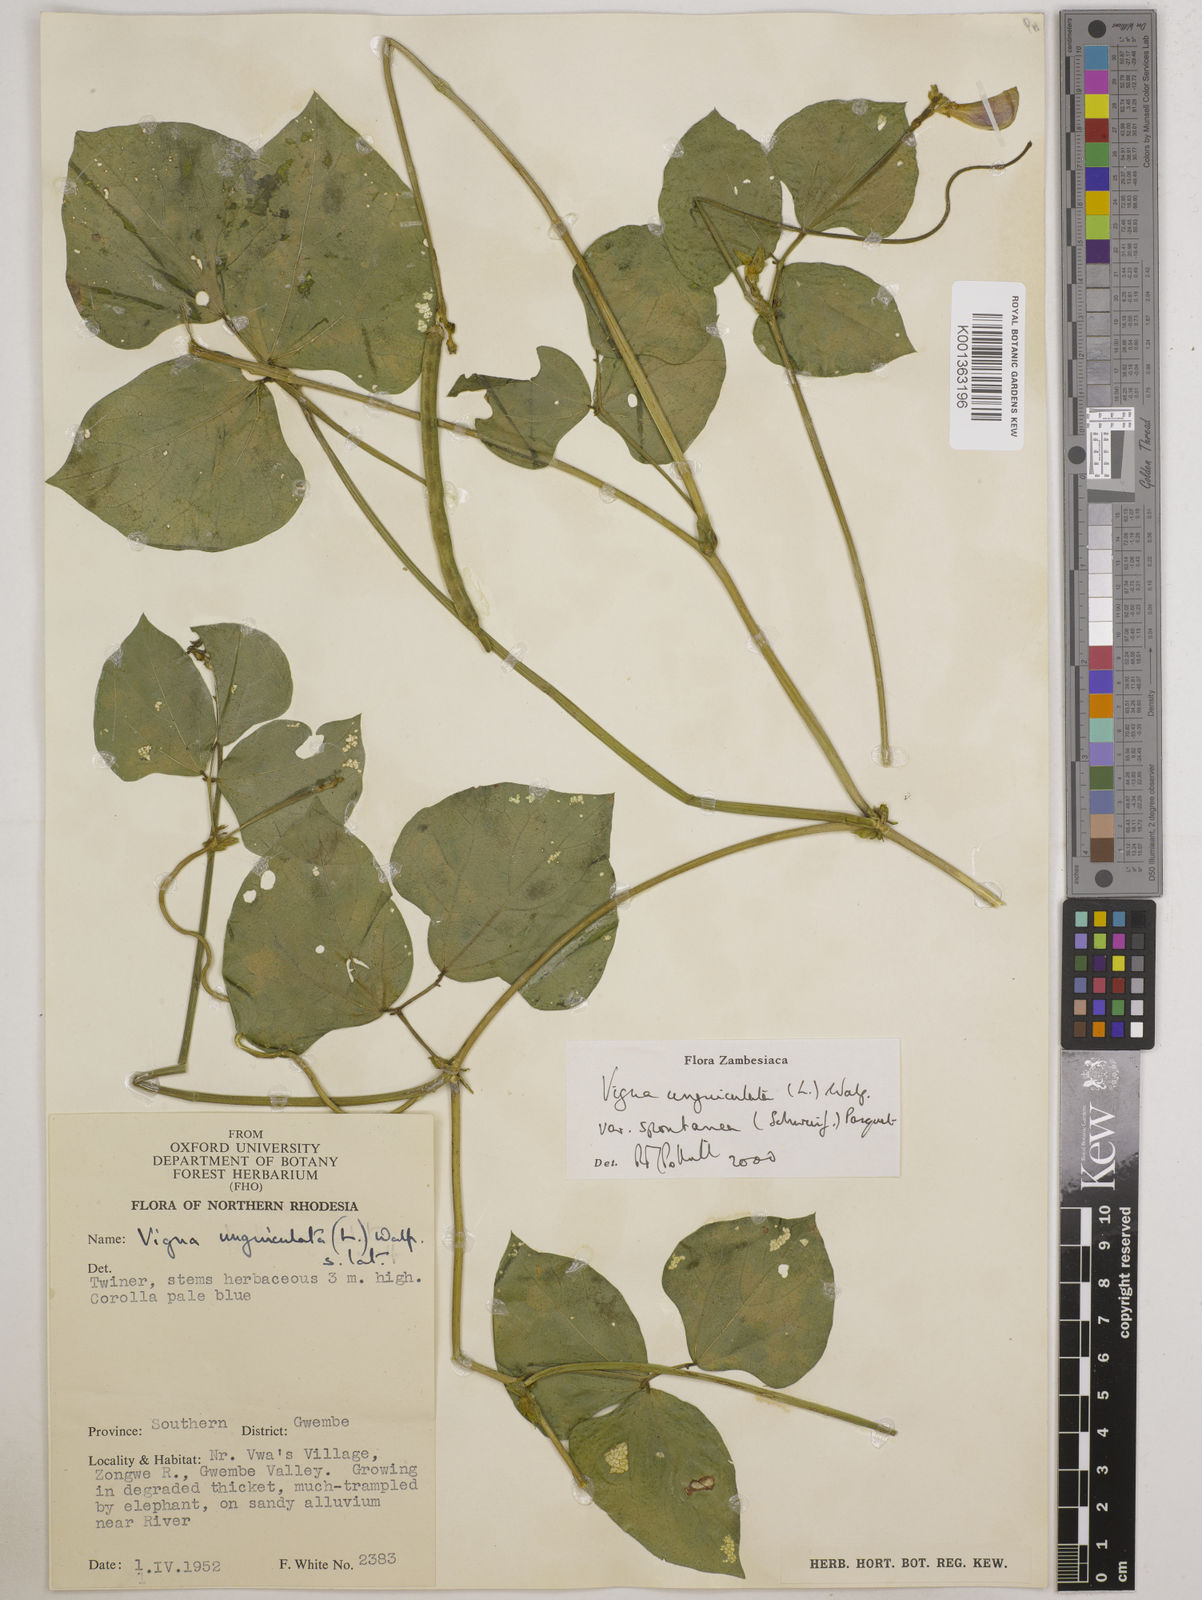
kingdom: Plantae
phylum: Tracheophyta
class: Magnoliopsida
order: Fabales
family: Fabaceae
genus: Vigna
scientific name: Vigna unguiculata
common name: Cowpea
